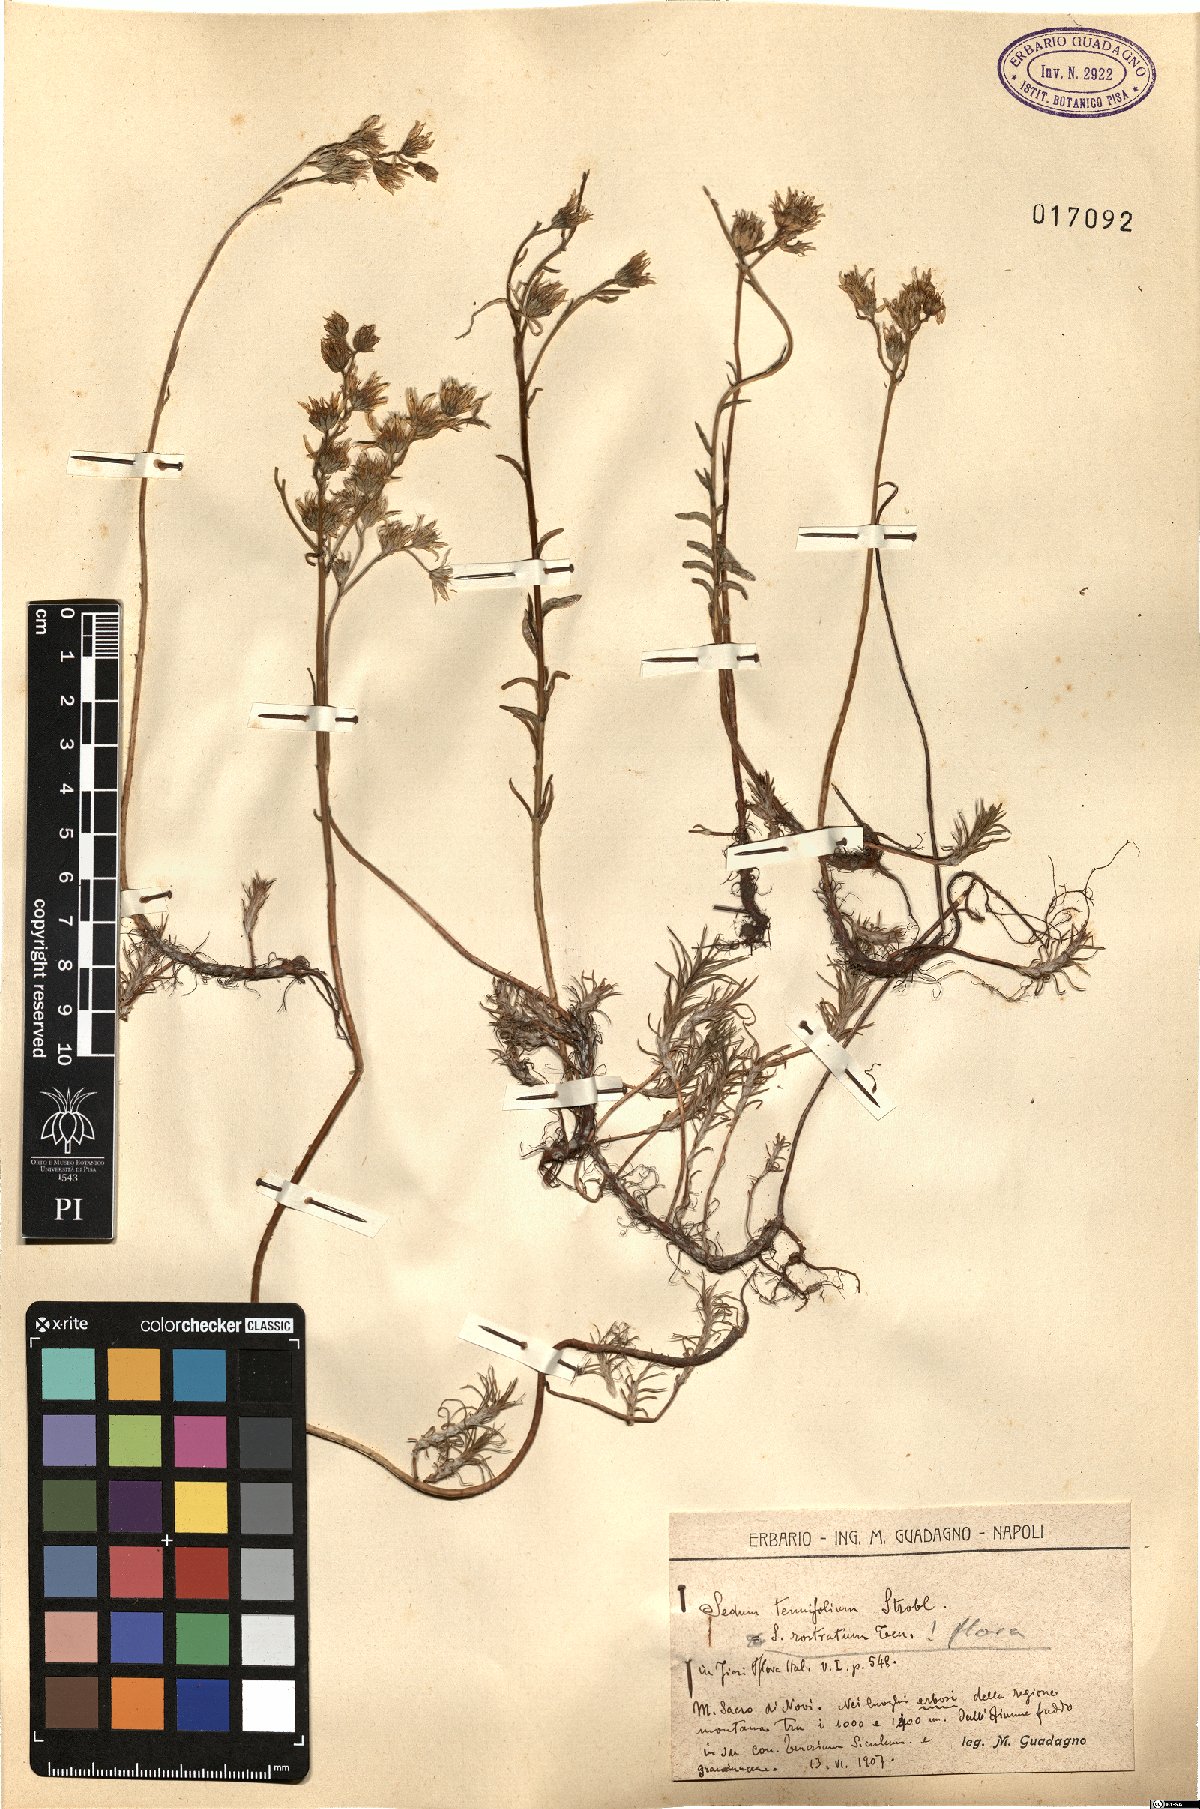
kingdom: Plantae
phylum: Tracheophyta
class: Magnoliopsida
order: Saxifragales
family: Crassulaceae
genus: Petrosedum
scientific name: Petrosedum tenuifolium
